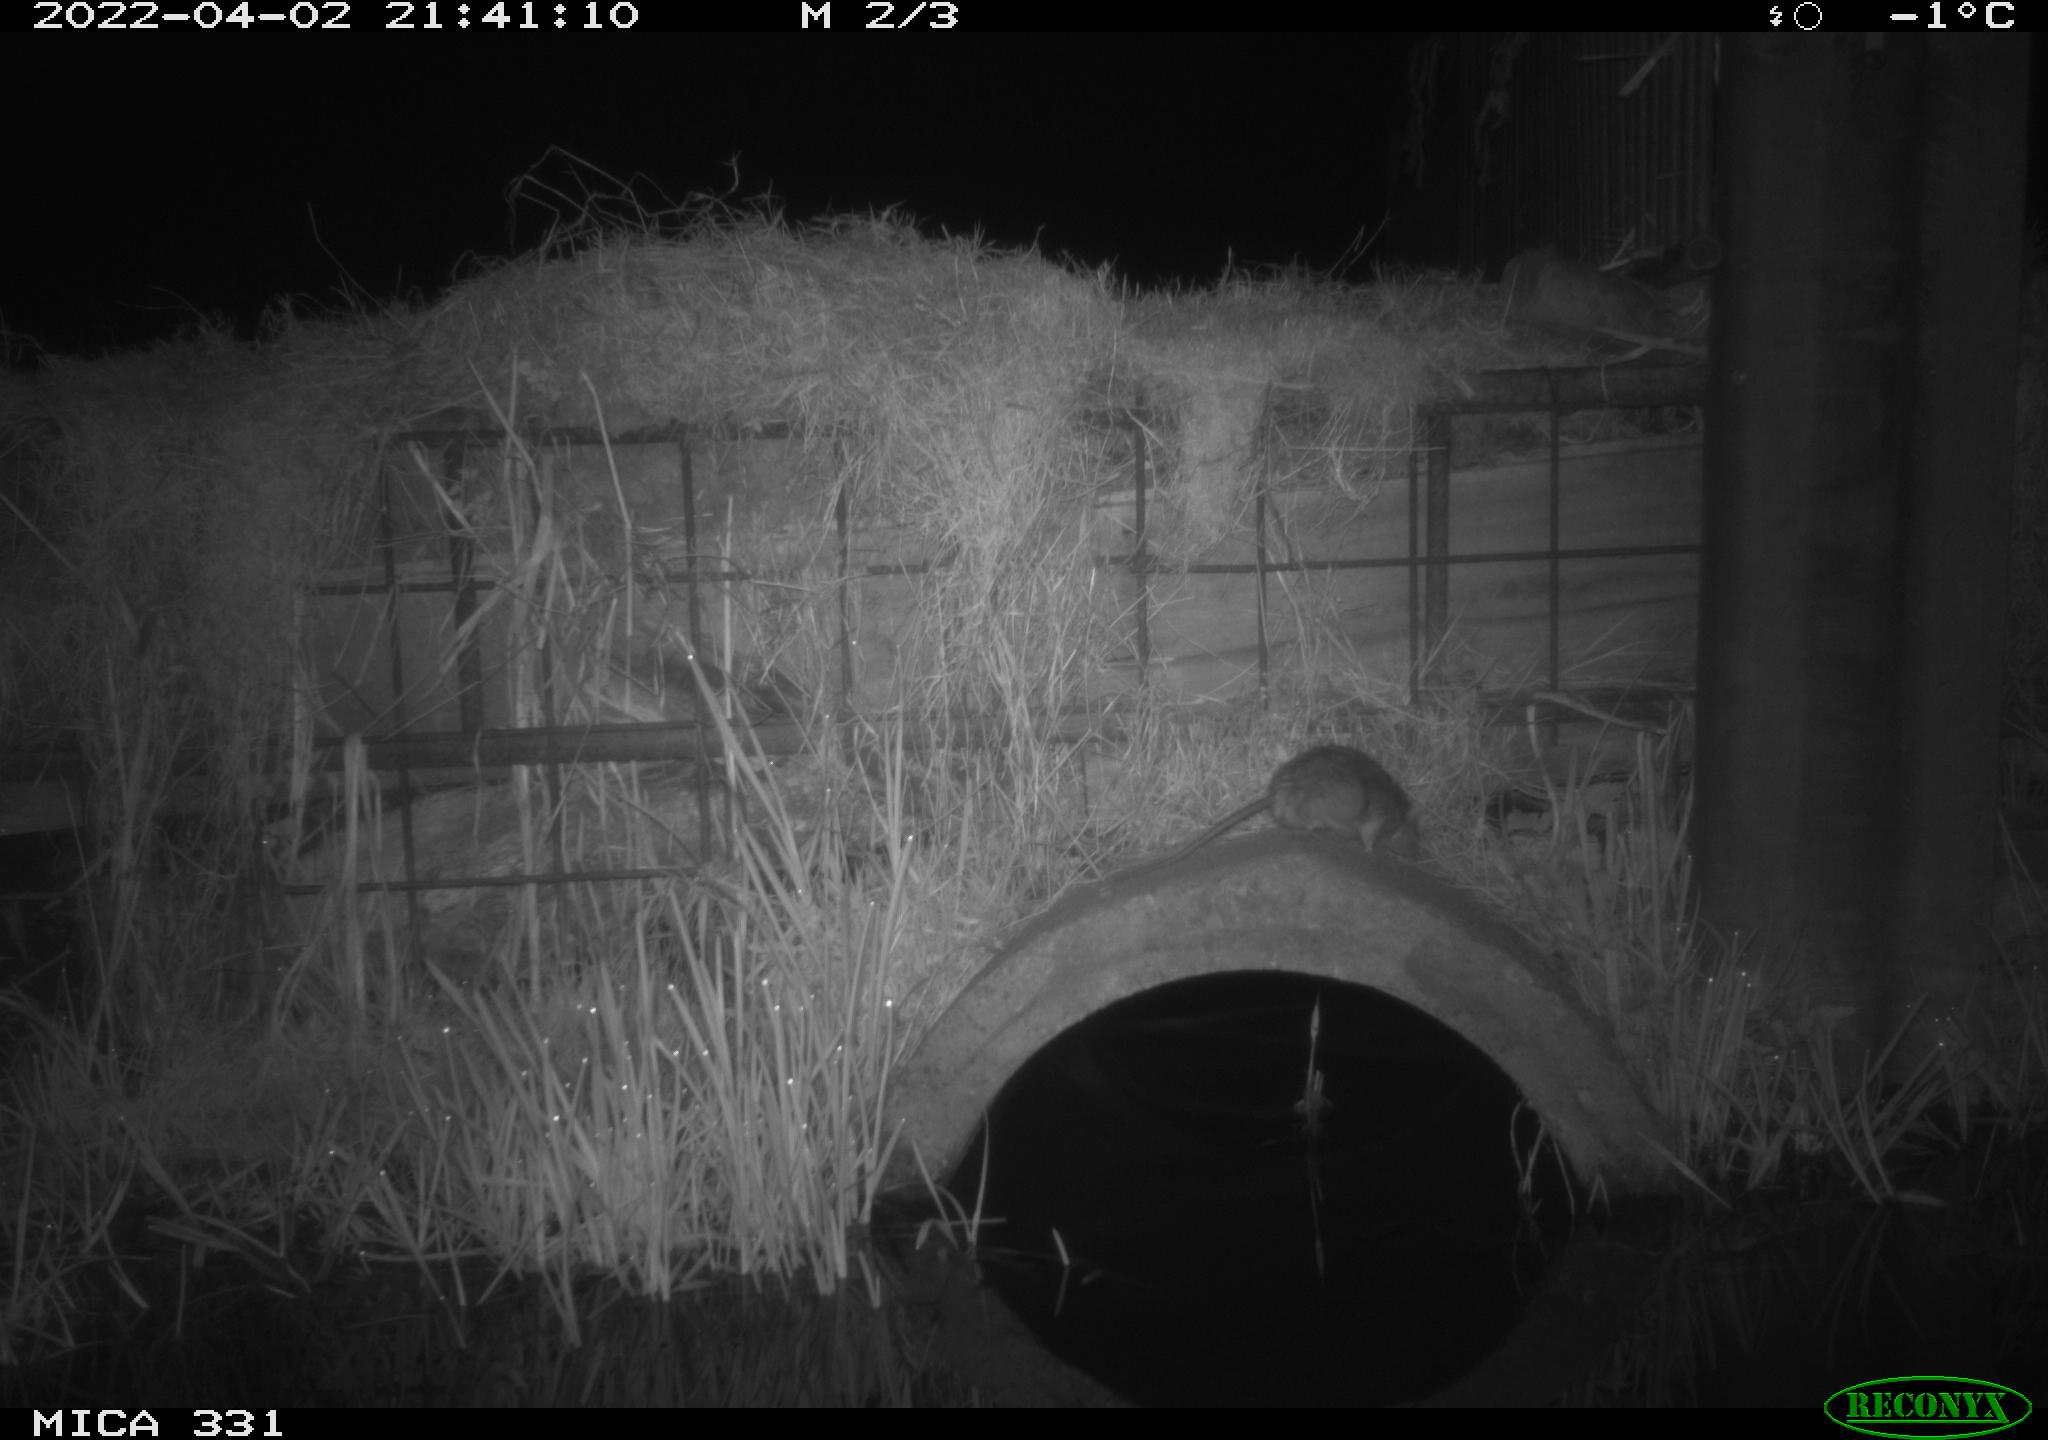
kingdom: Animalia
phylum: Chordata
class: Mammalia
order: Rodentia
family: Muridae
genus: Rattus
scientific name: Rattus norvegicus
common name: Brown rat
